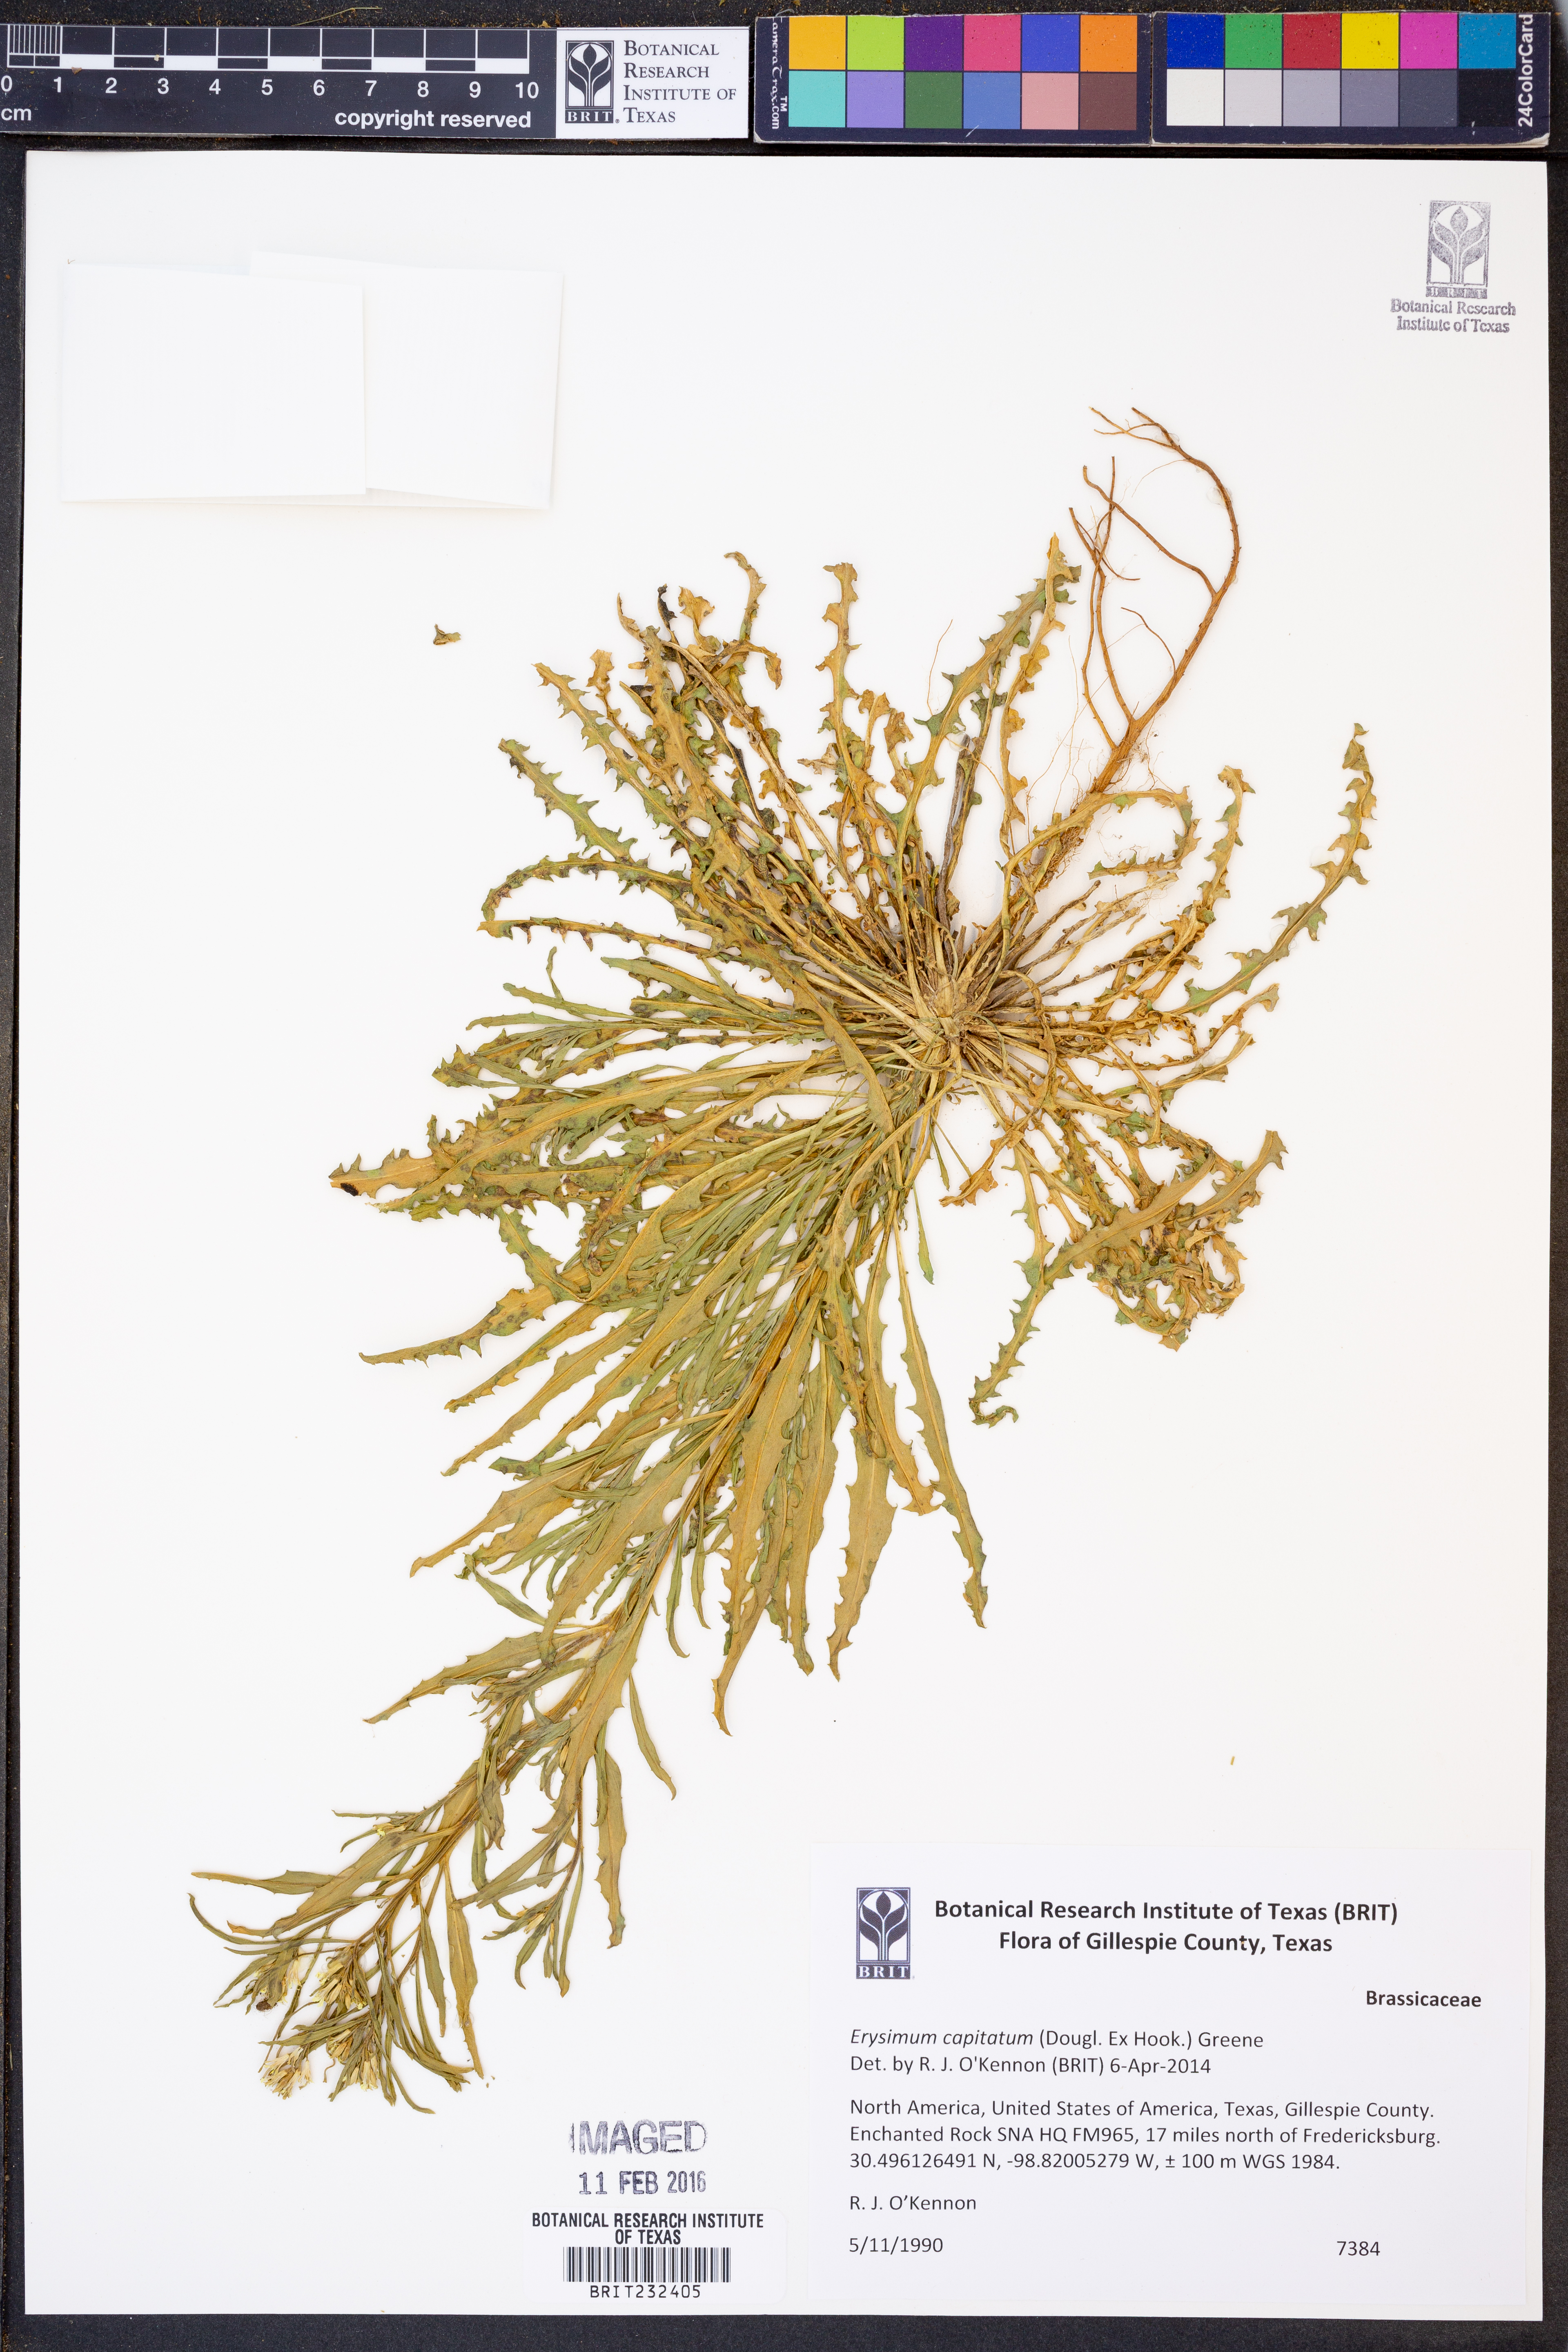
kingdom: Plantae
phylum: Tracheophyta
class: Magnoliopsida
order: Brassicales
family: Brassicaceae
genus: Erysimum
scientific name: Erysimum capitatum
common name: Western wallflower
